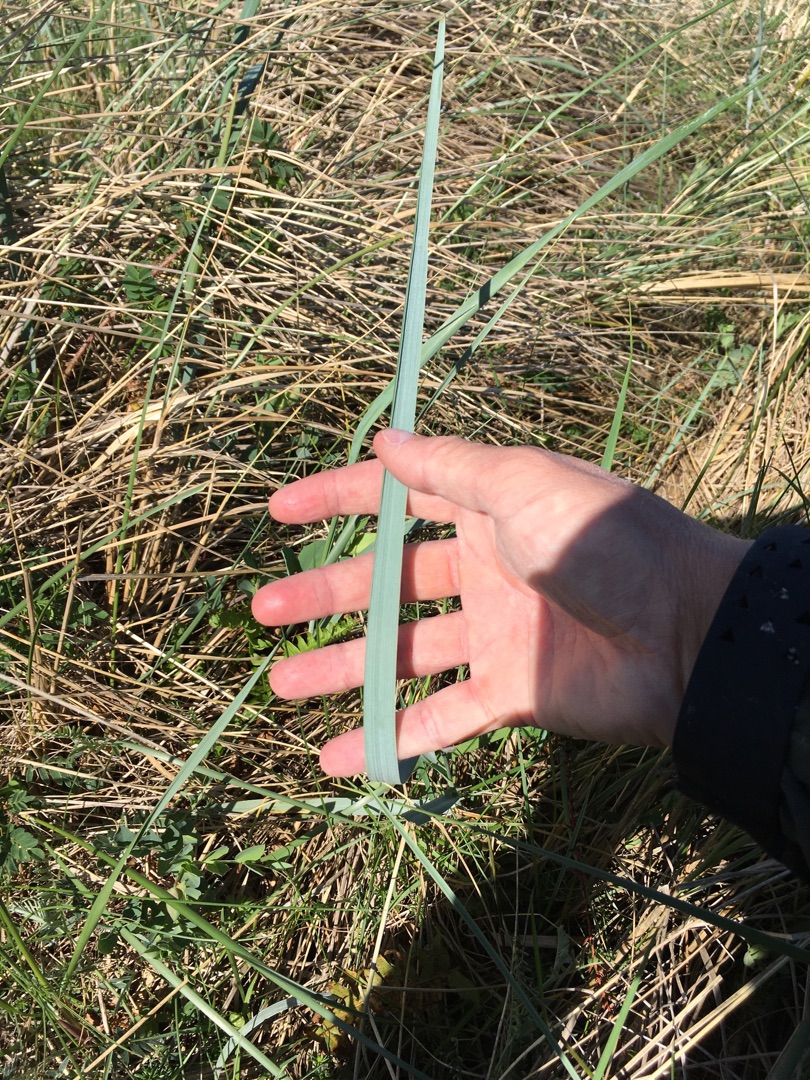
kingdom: Plantae
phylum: Tracheophyta
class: Liliopsida
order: Poales
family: Poaceae
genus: Leymus
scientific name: Leymus arenarius
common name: Marehalm
